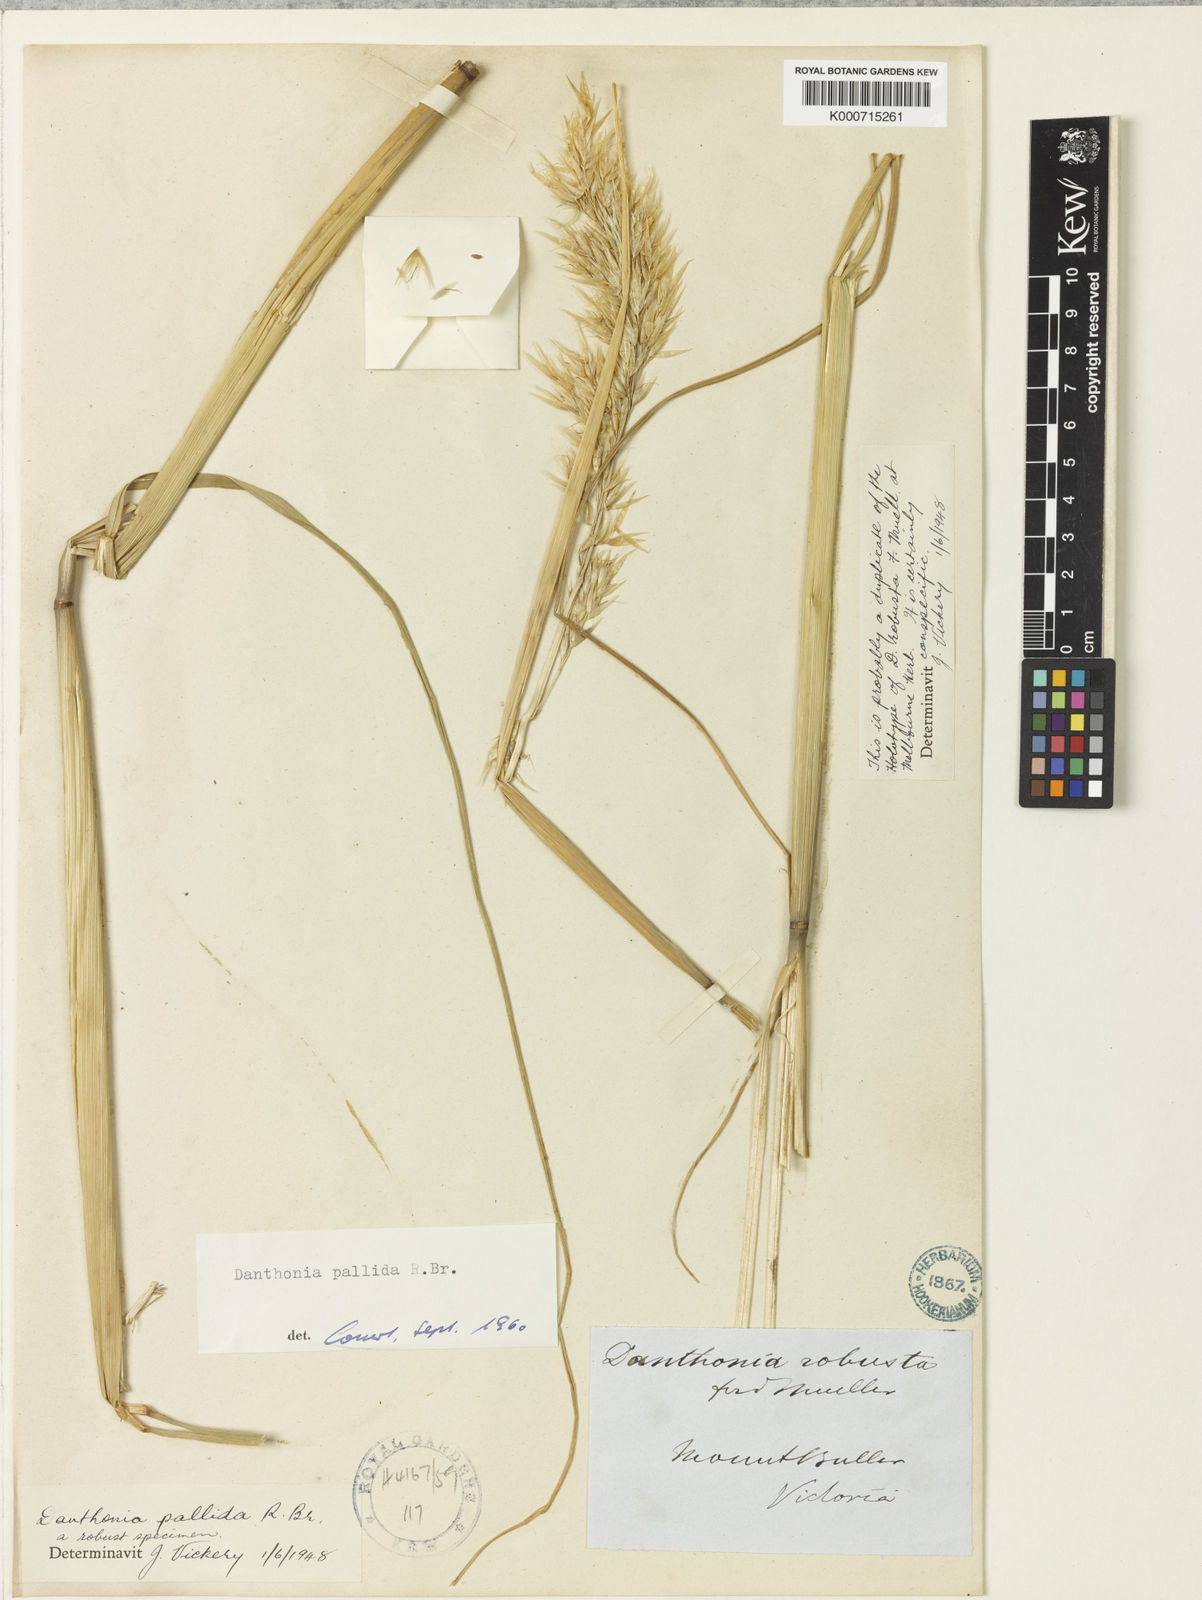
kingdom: Plantae
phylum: Tracheophyta
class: Liliopsida
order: Poales
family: Poaceae
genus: Rytidosperma
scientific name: Rytidosperma pallidum
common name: Red-anther wallaby grass
